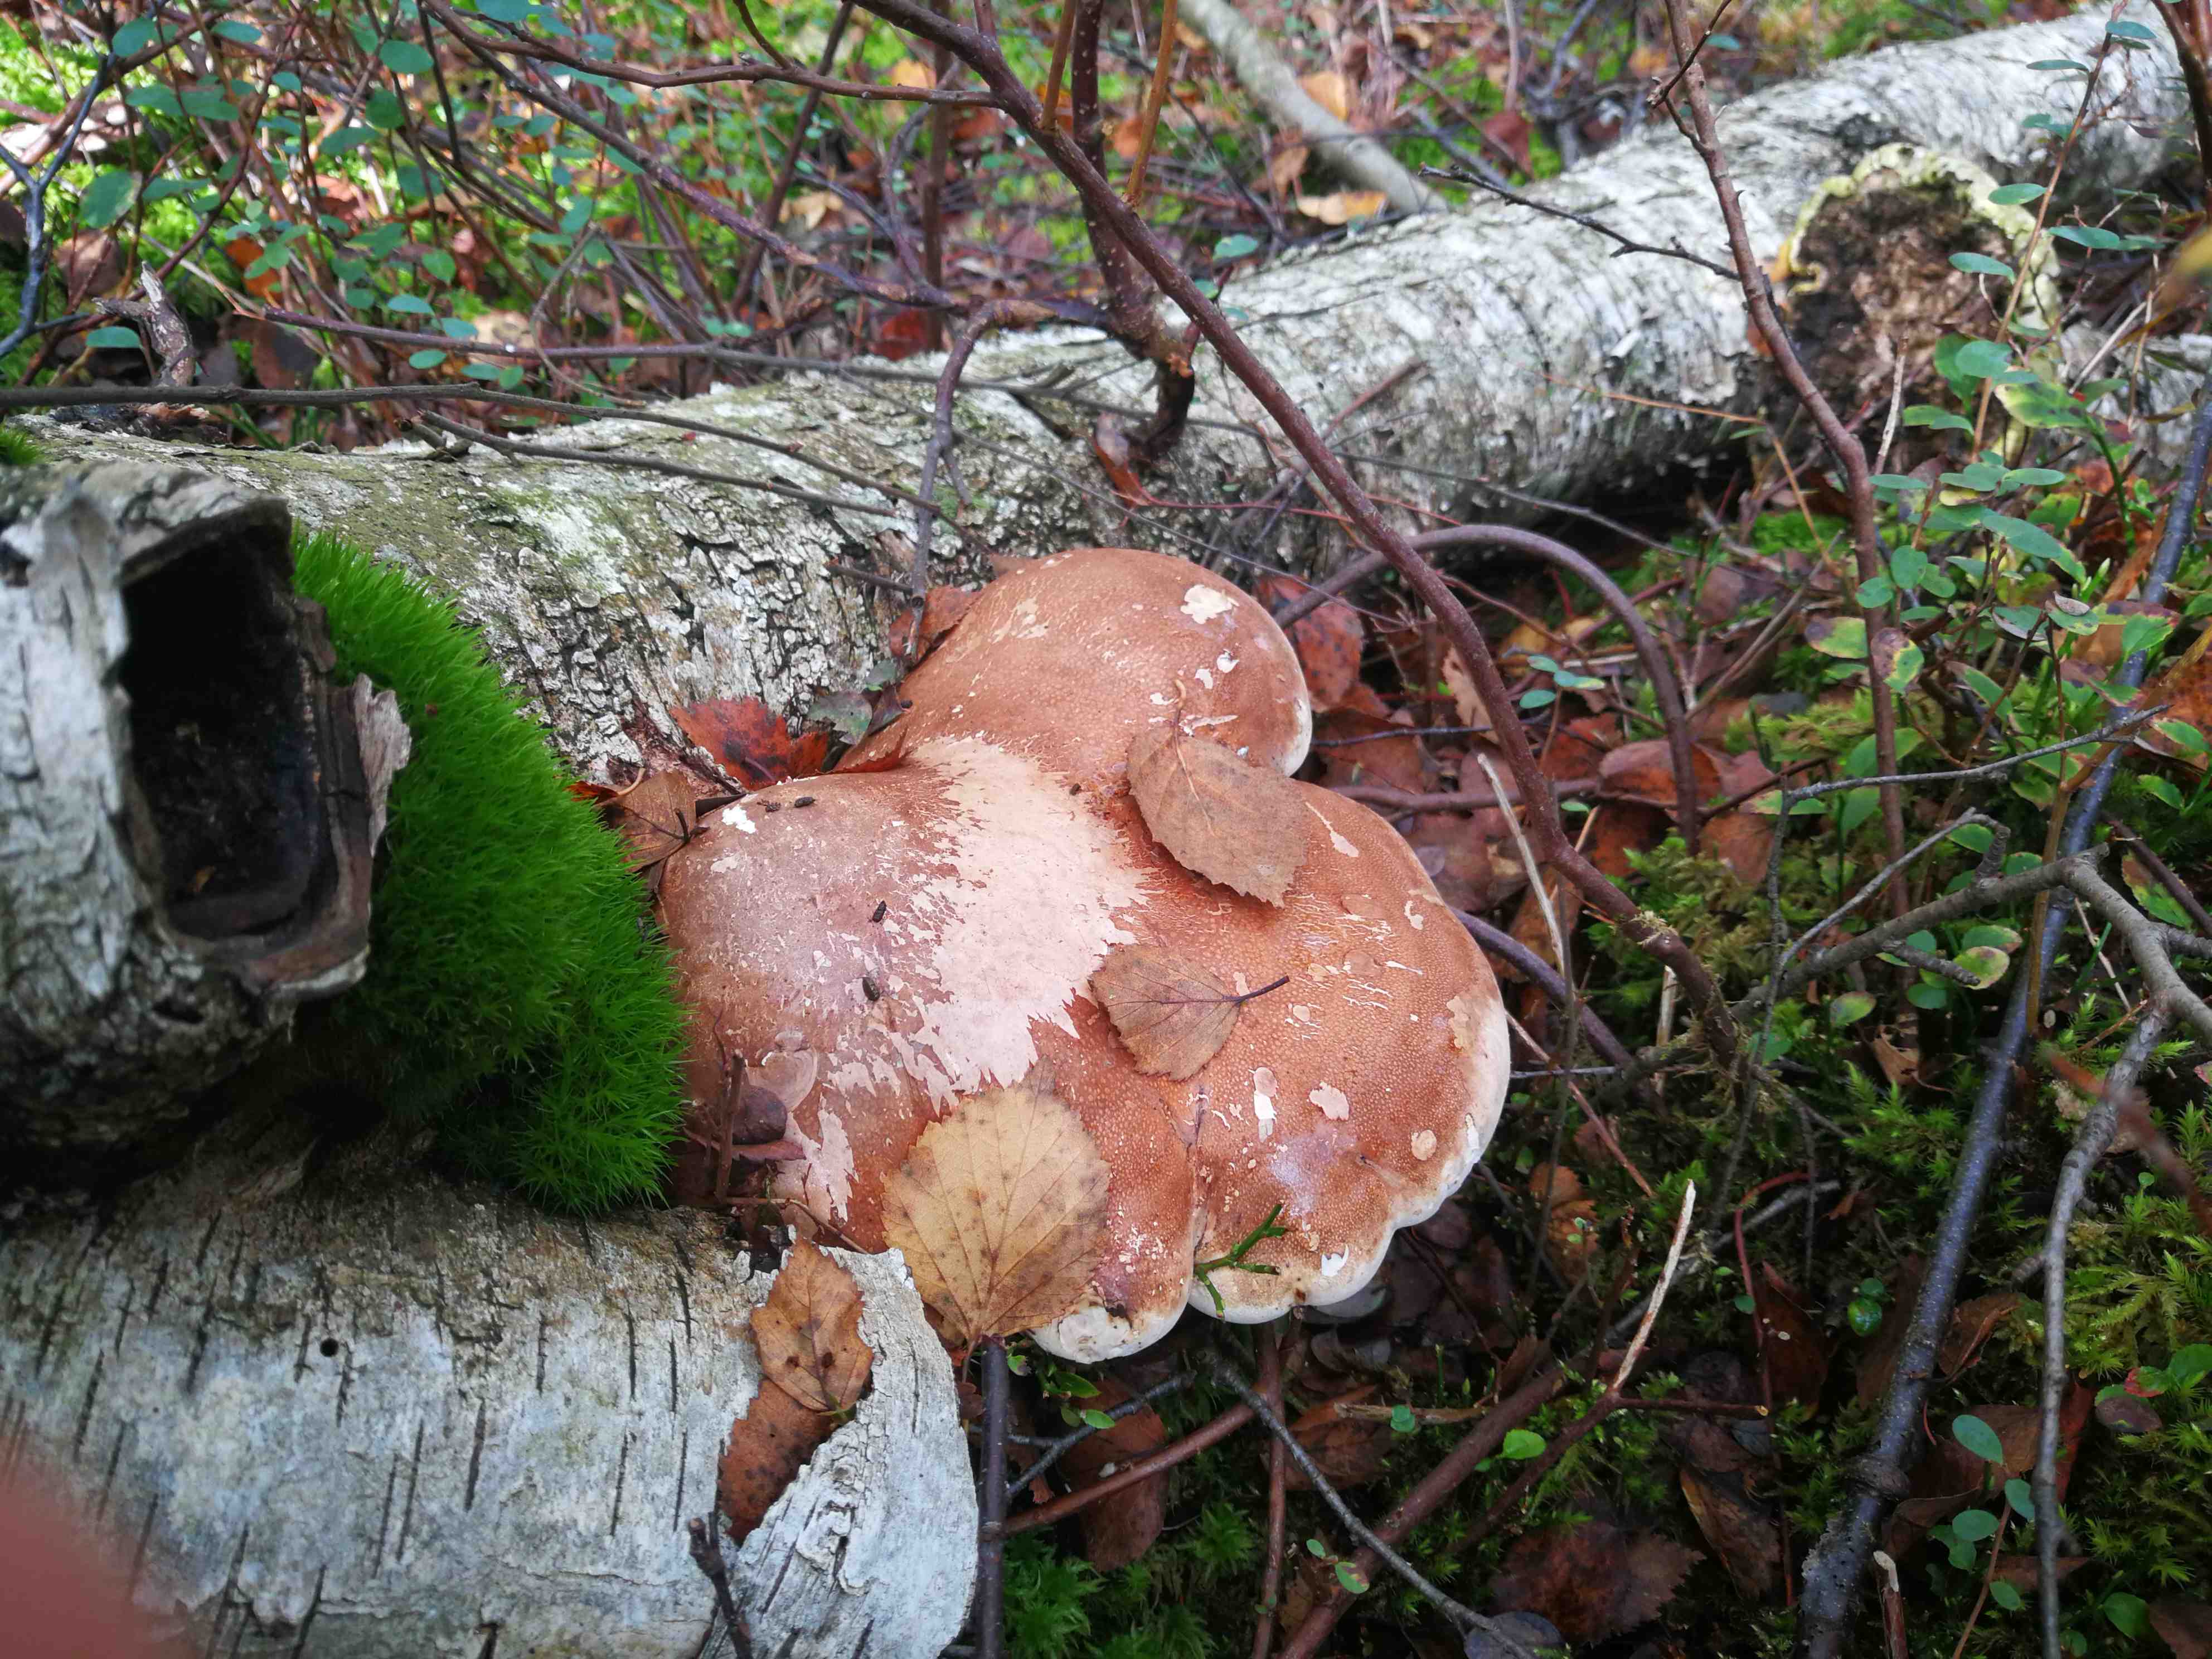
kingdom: Fungi
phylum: Basidiomycota
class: Agaricomycetes
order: Polyporales
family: Fomitopsidaceae
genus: Fomitopsis
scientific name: Fomitopsis betulina
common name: birkeporesvamp
